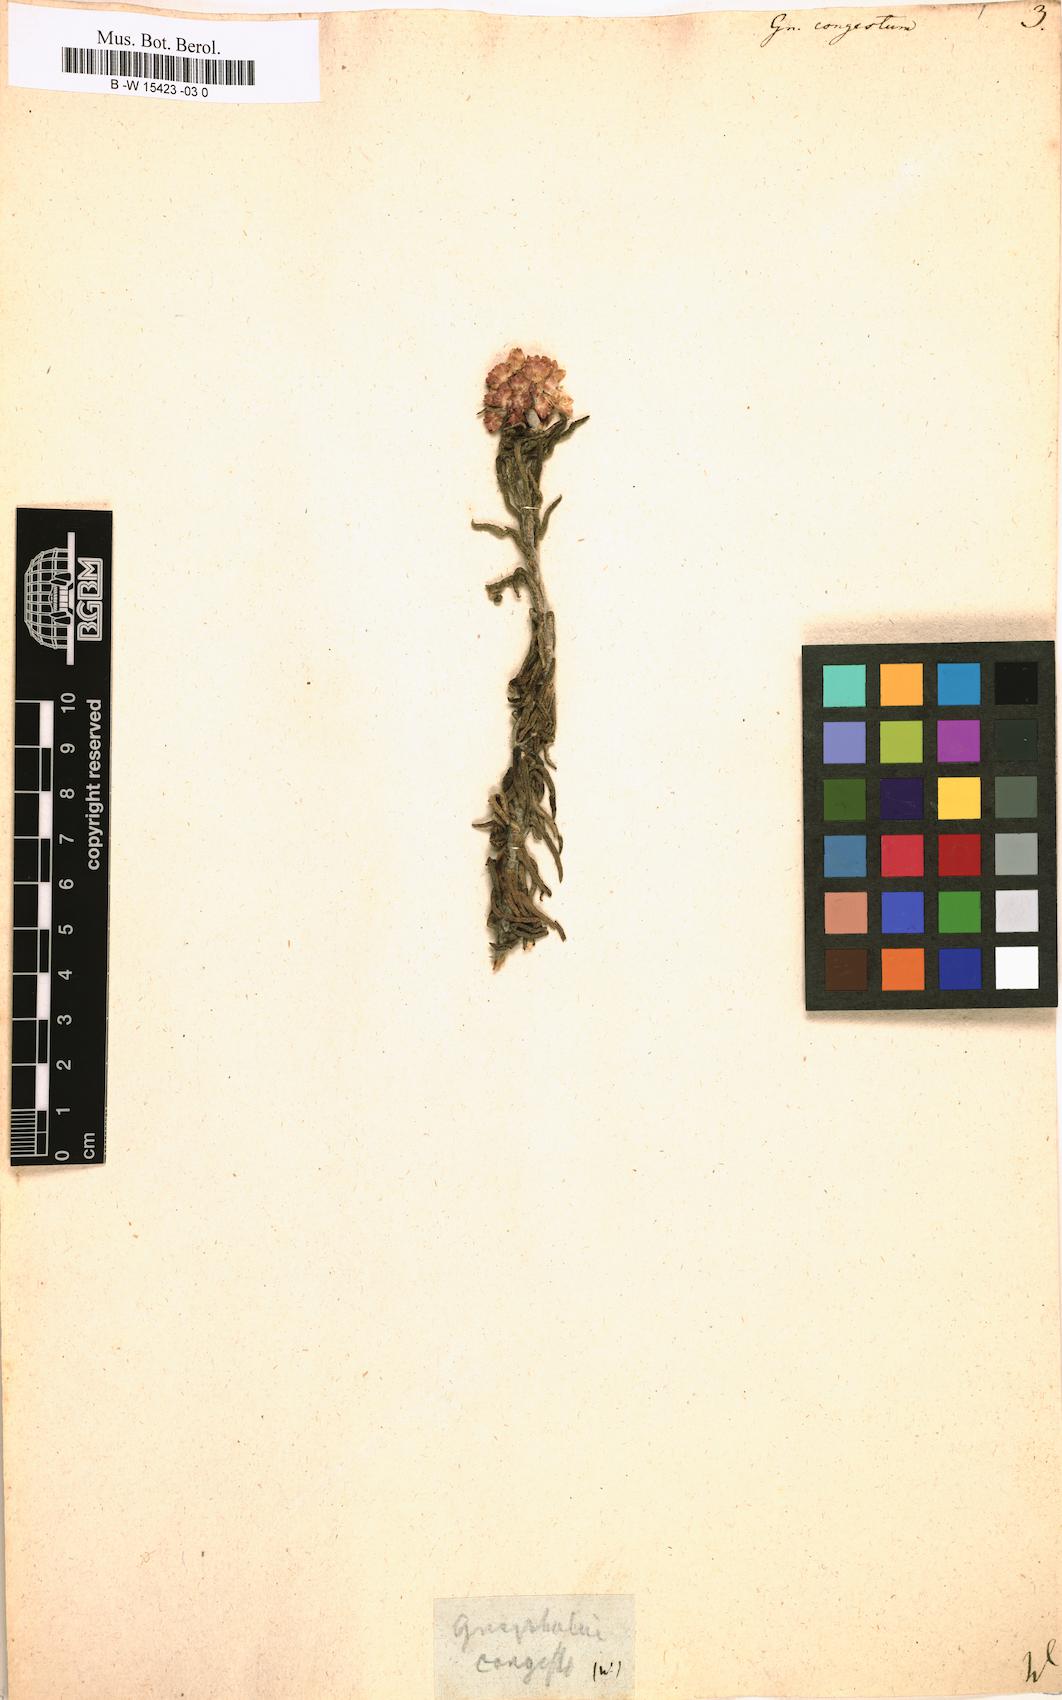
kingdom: Plantae
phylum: Tracheophyta
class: Magnoliopsida
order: Asterales
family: Asteraceae
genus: Helichrysum
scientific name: Helichrysum felinum
